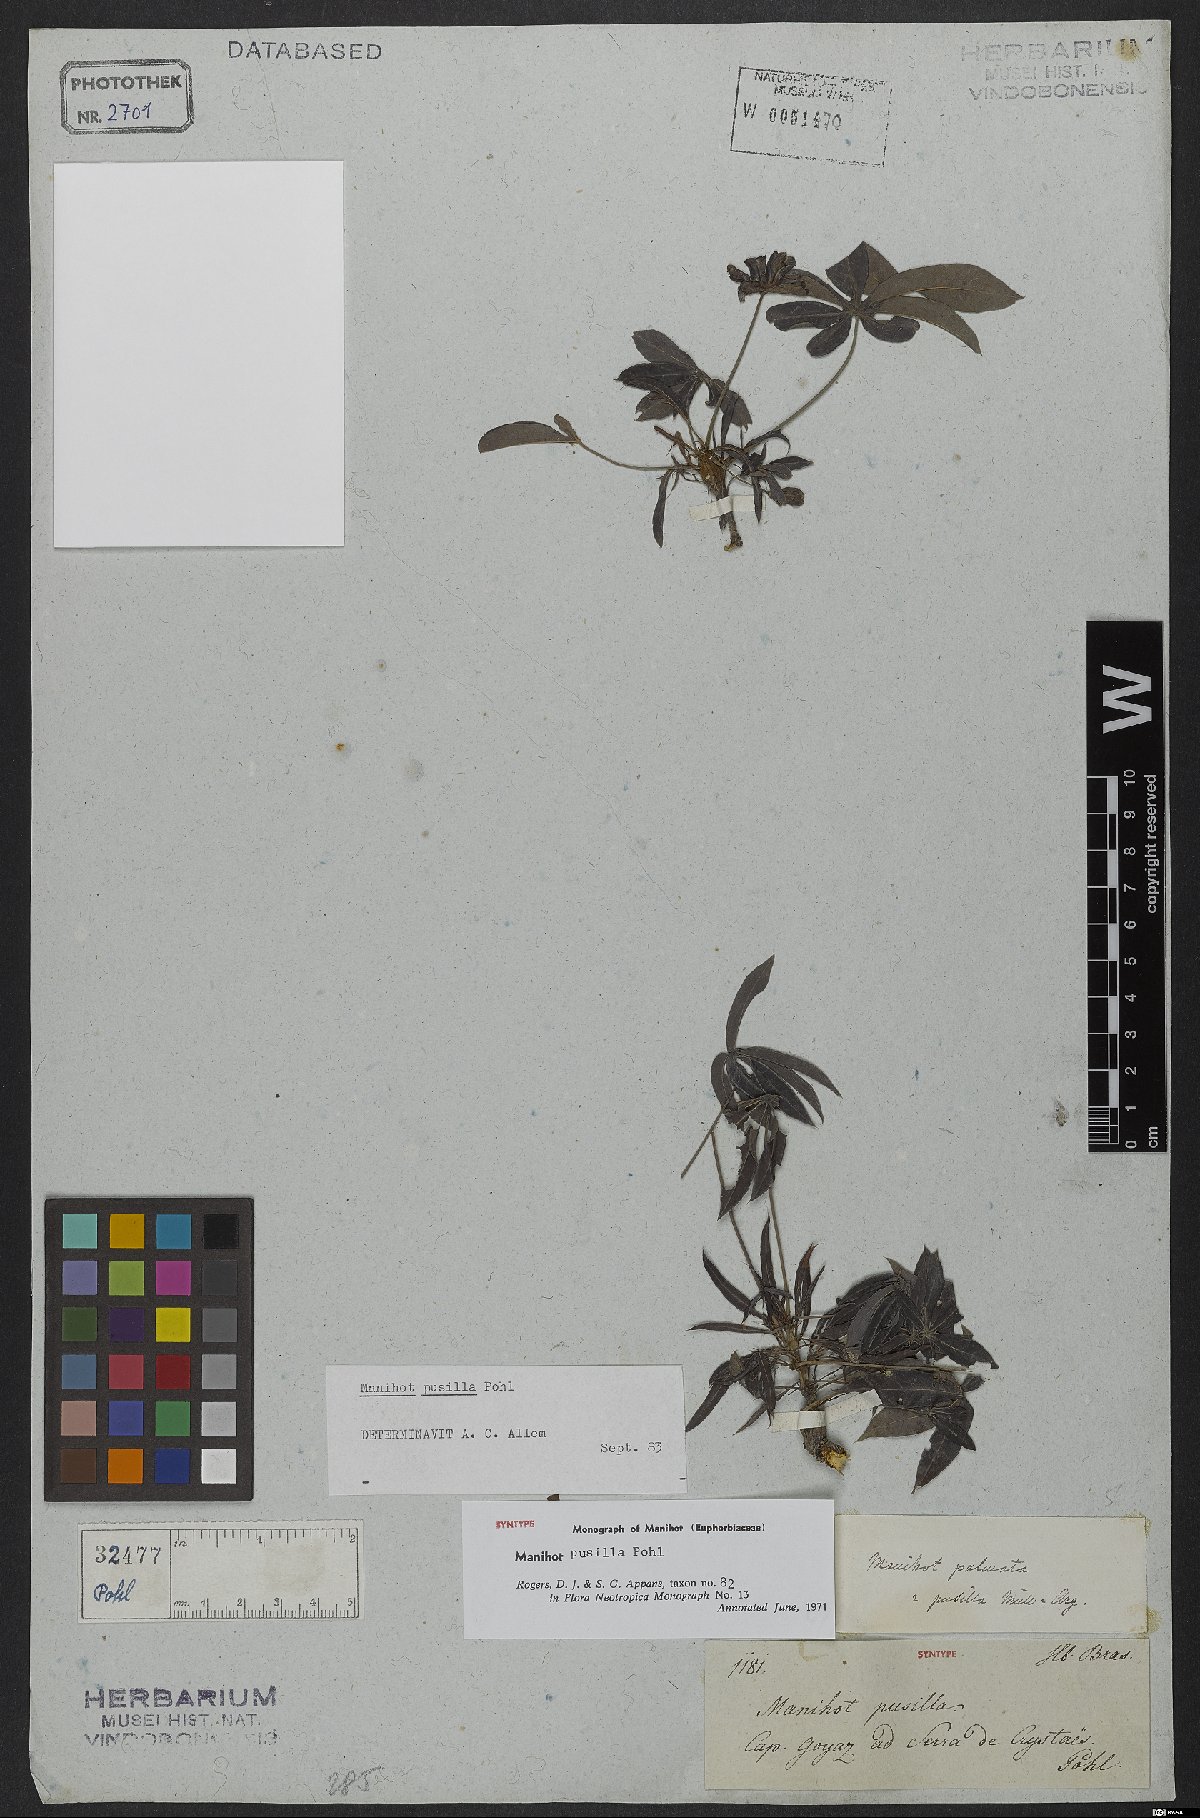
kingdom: Plantae
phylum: Tracheophyta
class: Magnoliopsida
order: Malpighiales
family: Euphorbiaceae
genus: Manihot
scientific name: Manihot pusilla
